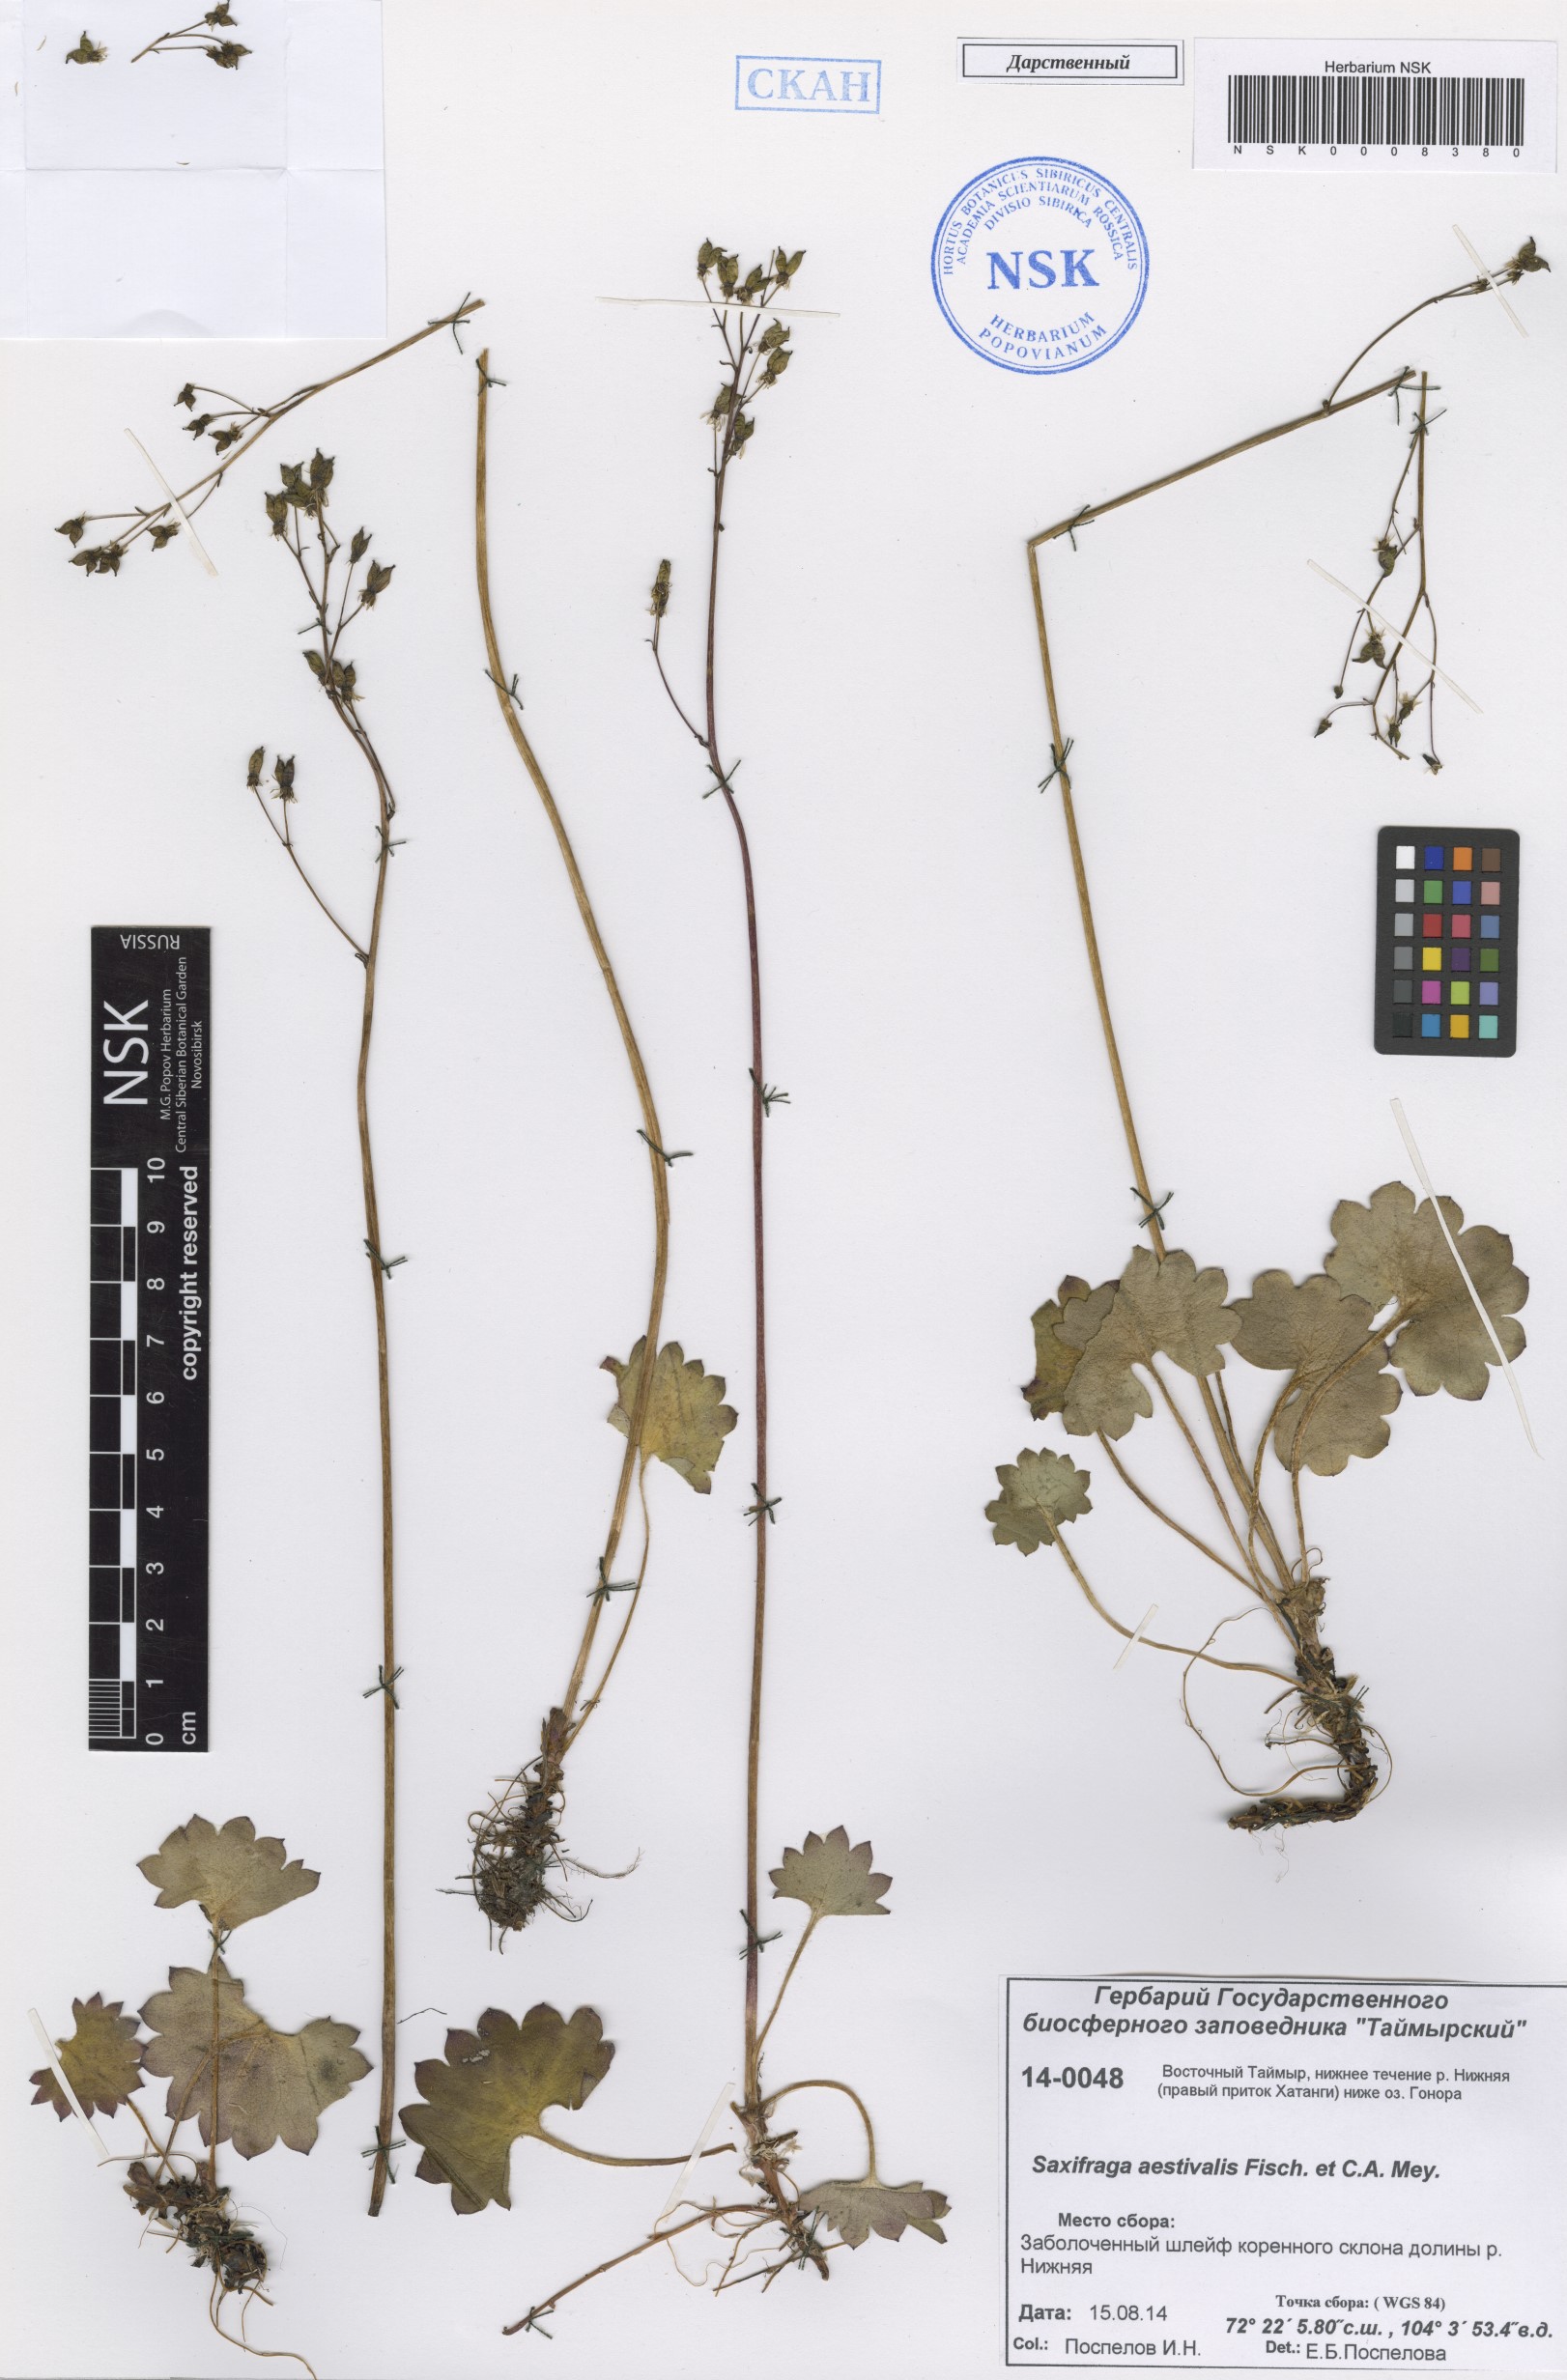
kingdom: Plantae
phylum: Tracheophyta
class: Magnoliopsida
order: Saxifragales
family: Saxifragaceae
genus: Micranthes
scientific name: Micranthes nelsoniana
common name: Nelson's saxifrage
